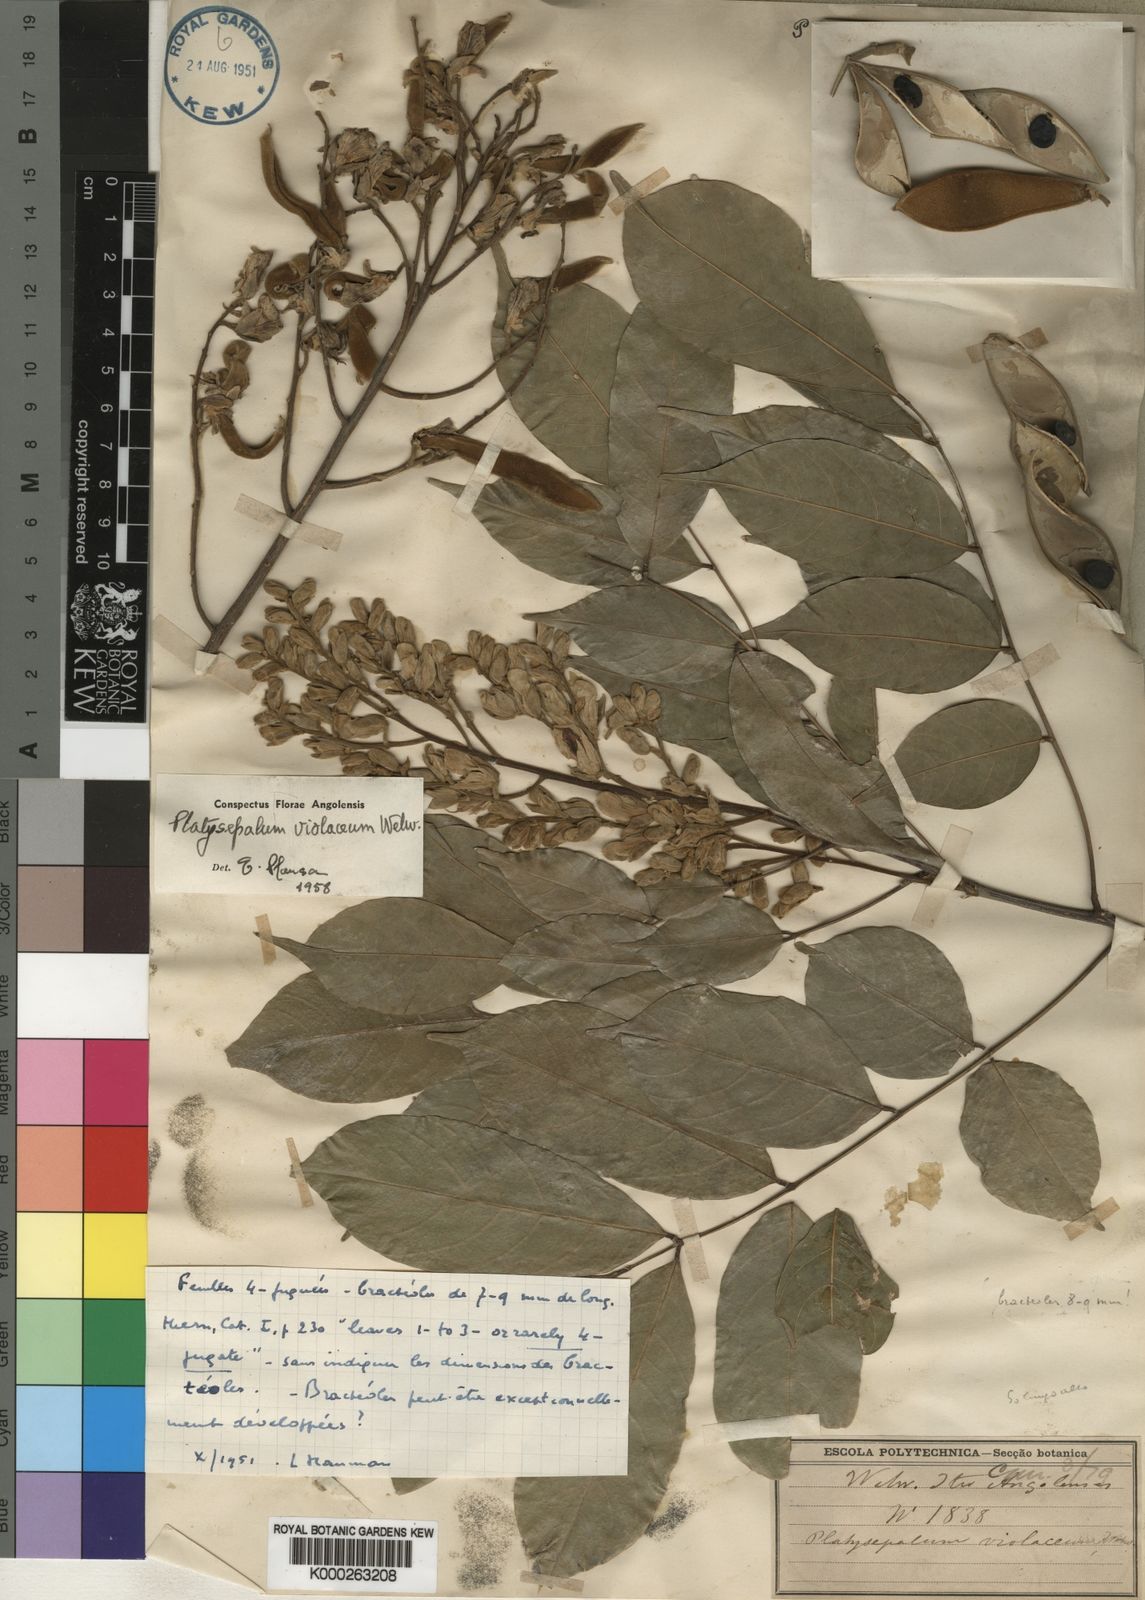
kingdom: Plantae
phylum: Tracheophyta
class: Magnoliopsida
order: Fabales
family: Fabaceae
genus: Platysepalum
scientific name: Platysepalum
